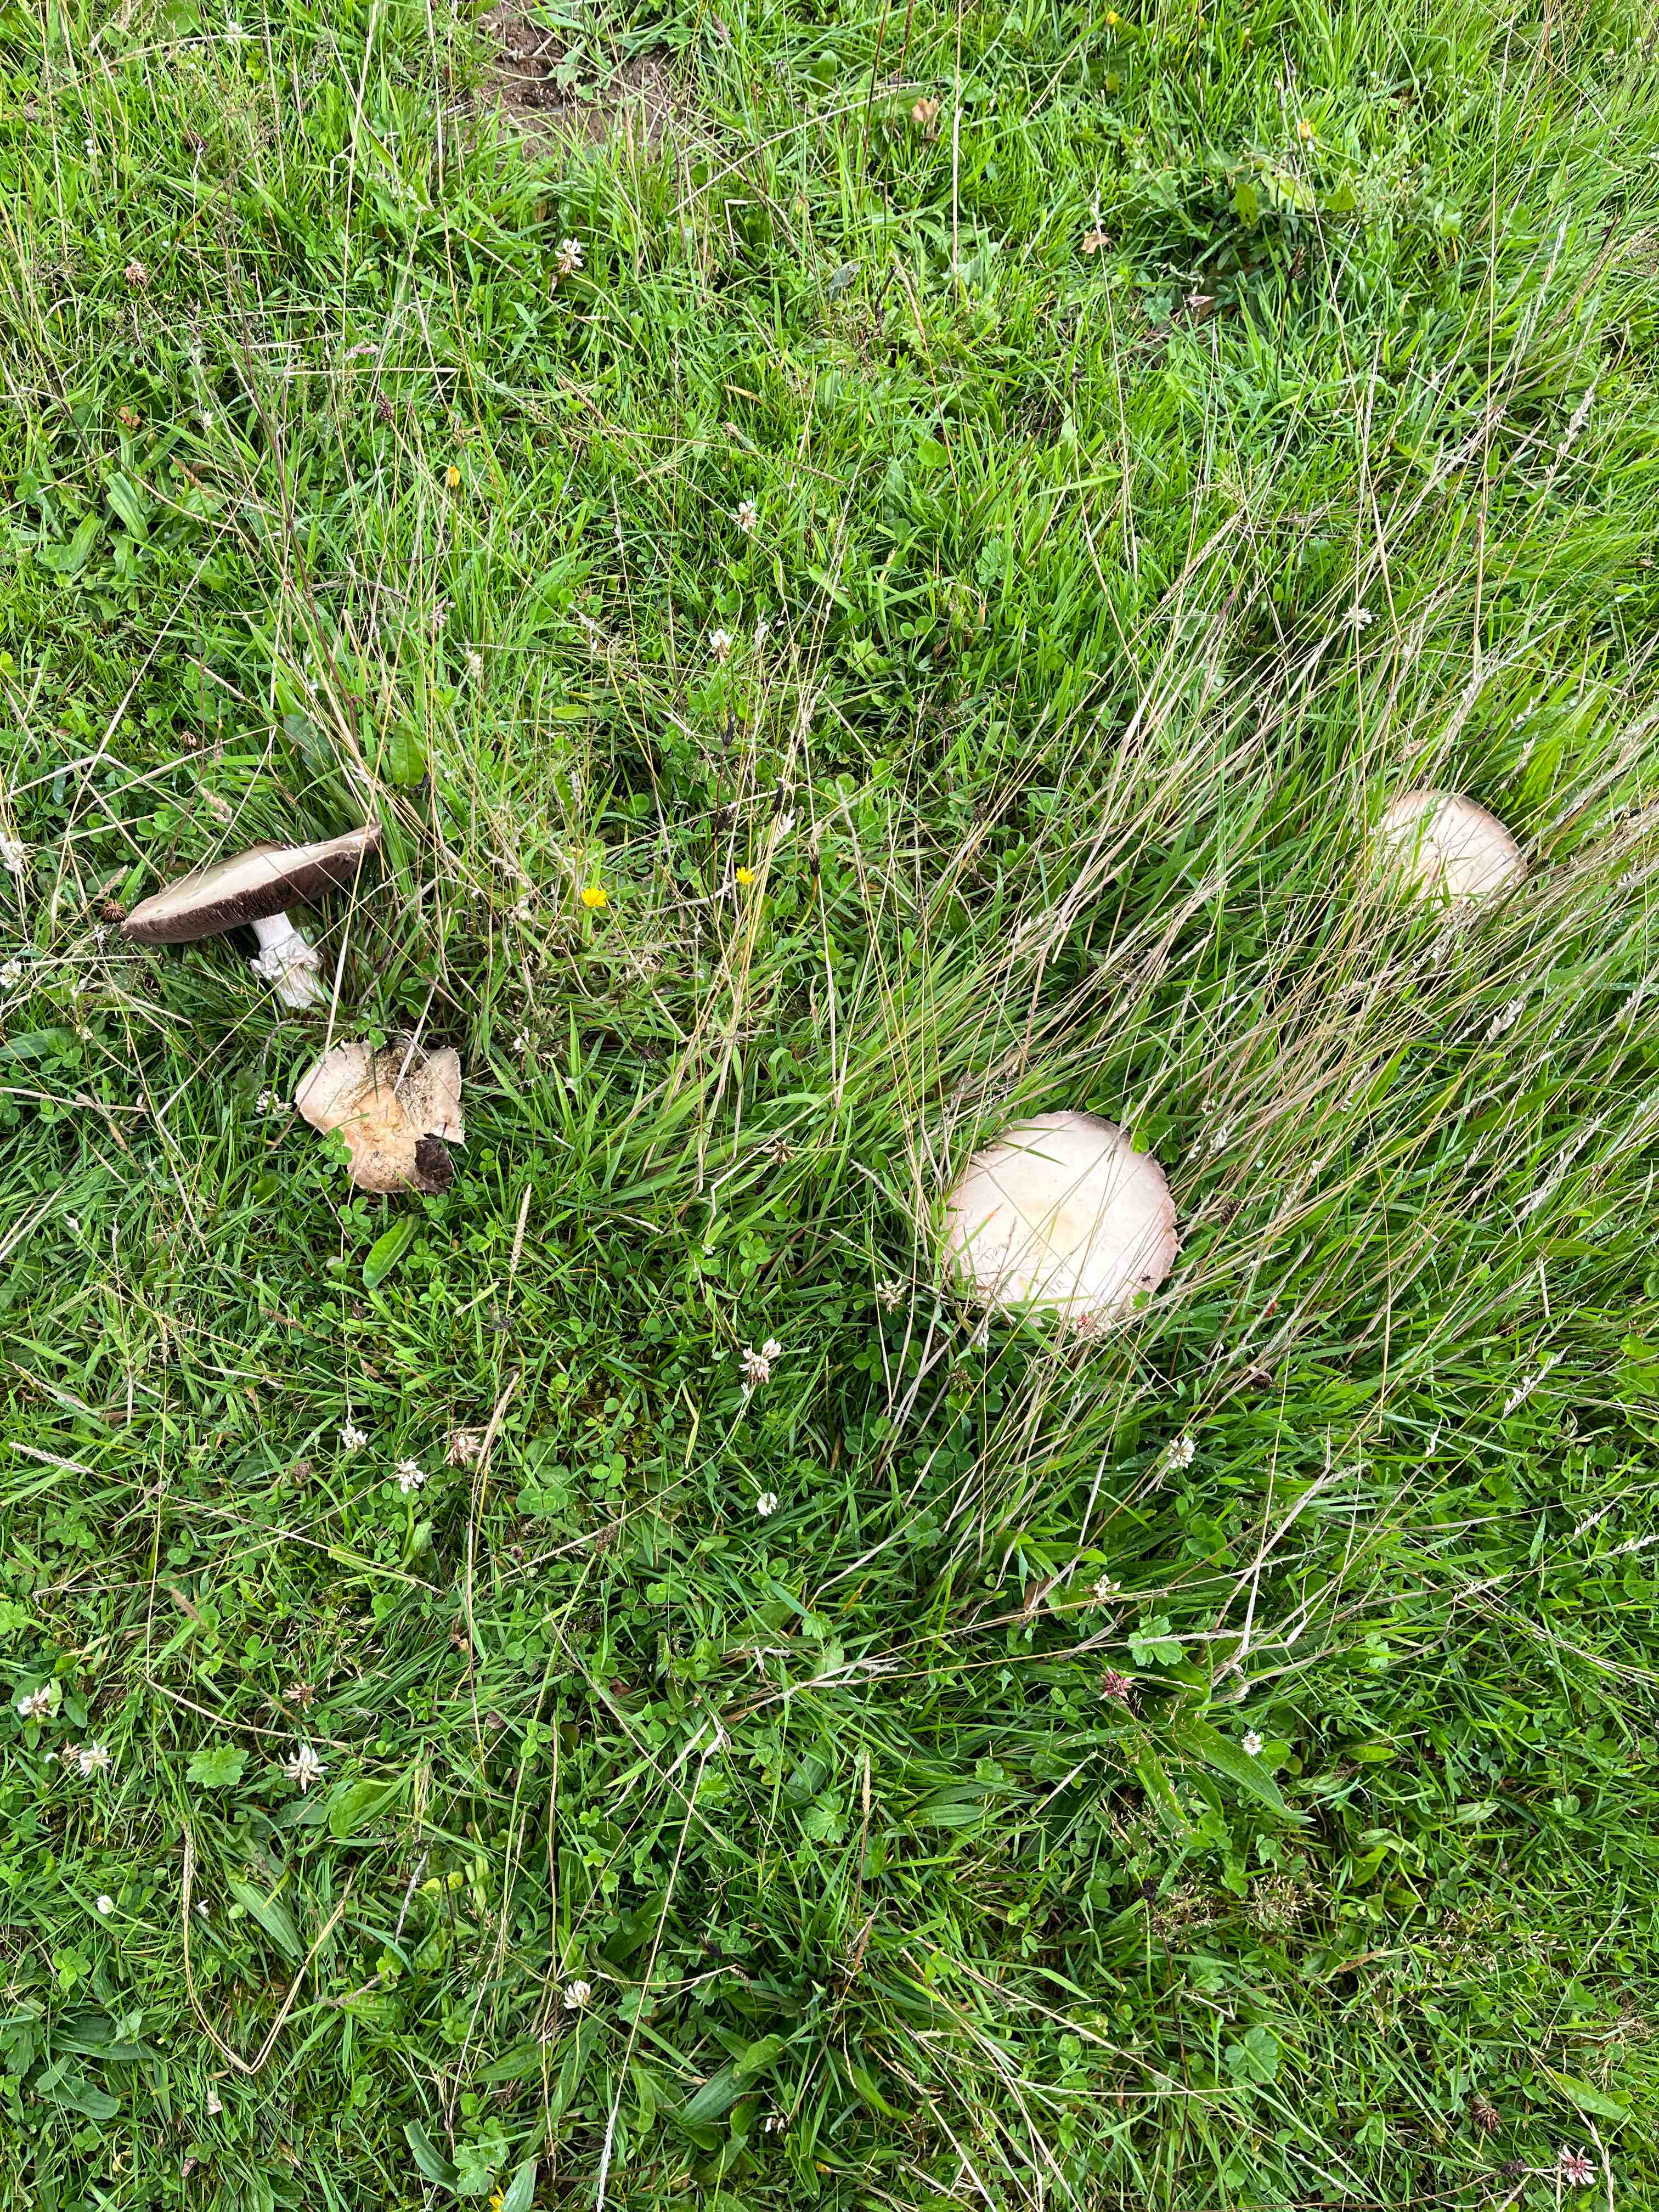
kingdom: Fungi
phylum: Basidiomycota
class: Agaricomycetes
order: Agaricales
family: Agaricaceae
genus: Agaricus
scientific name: Agaricus
